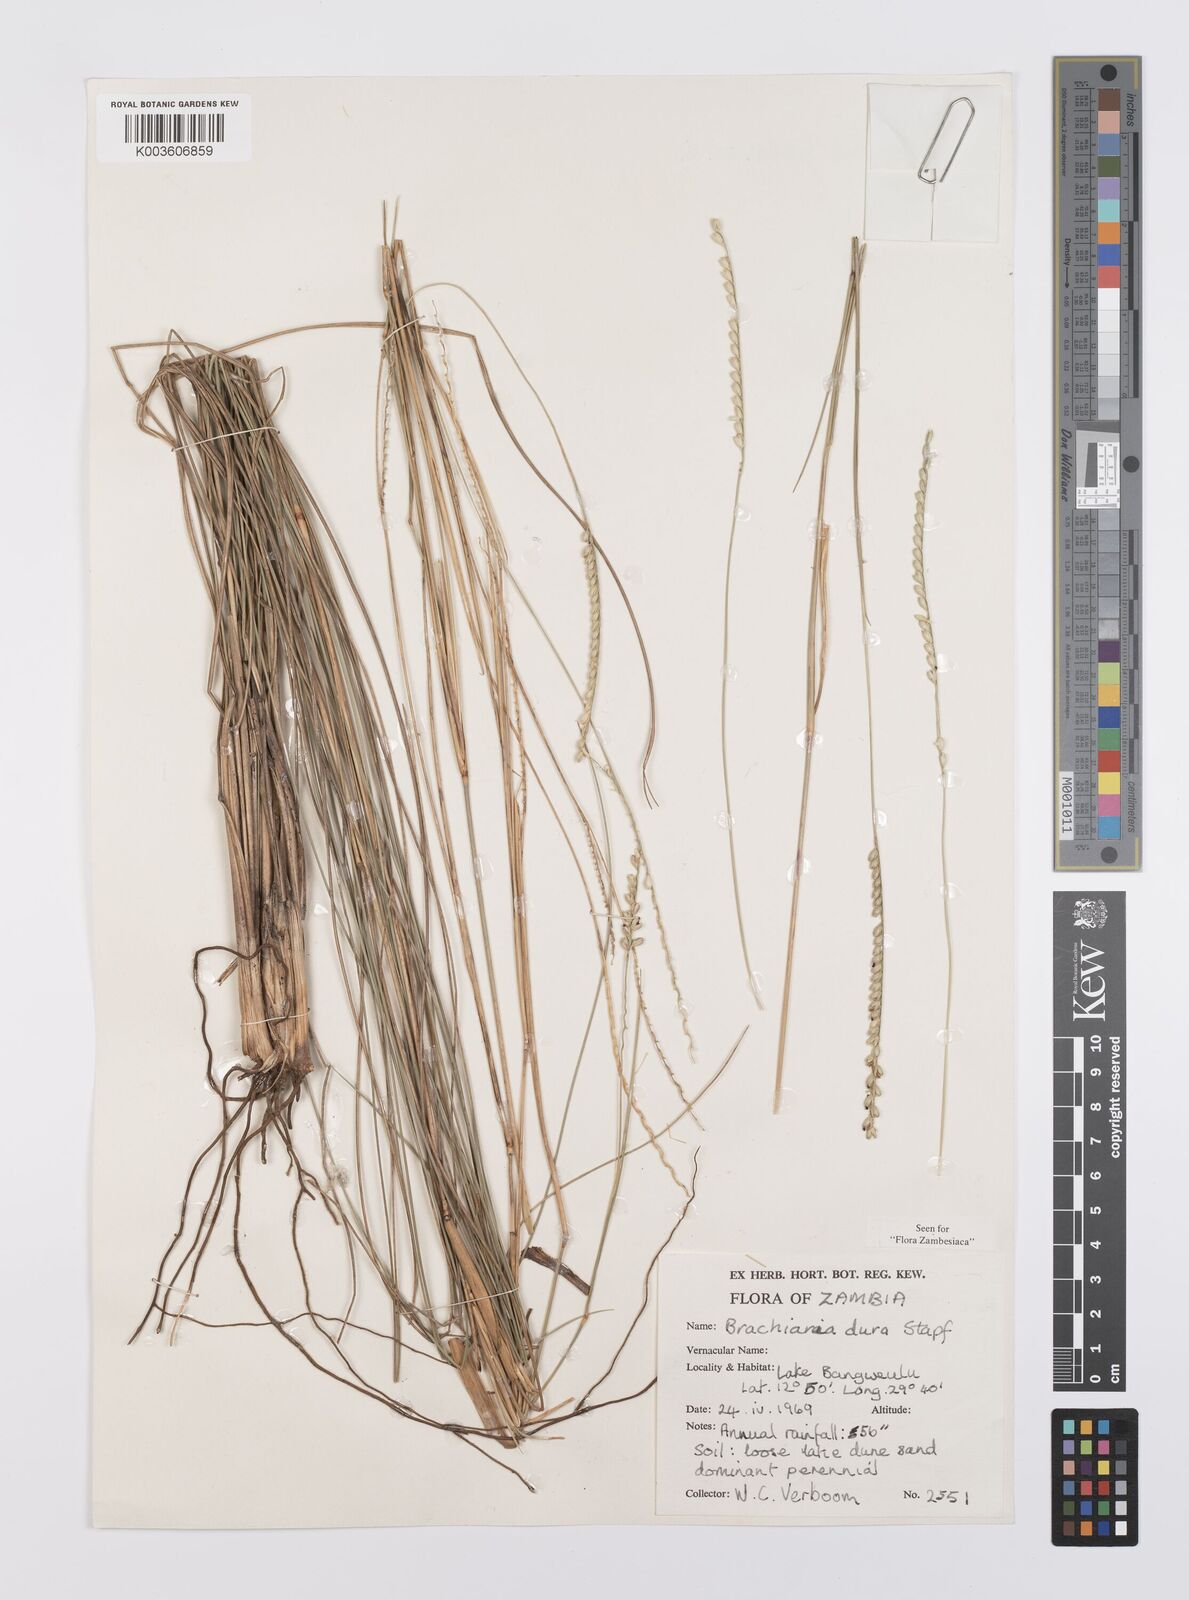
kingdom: Plantae
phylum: Tracheophyta
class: Liliopsida
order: Poales
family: Poaceae
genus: Urochloa
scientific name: Urochloa dura
